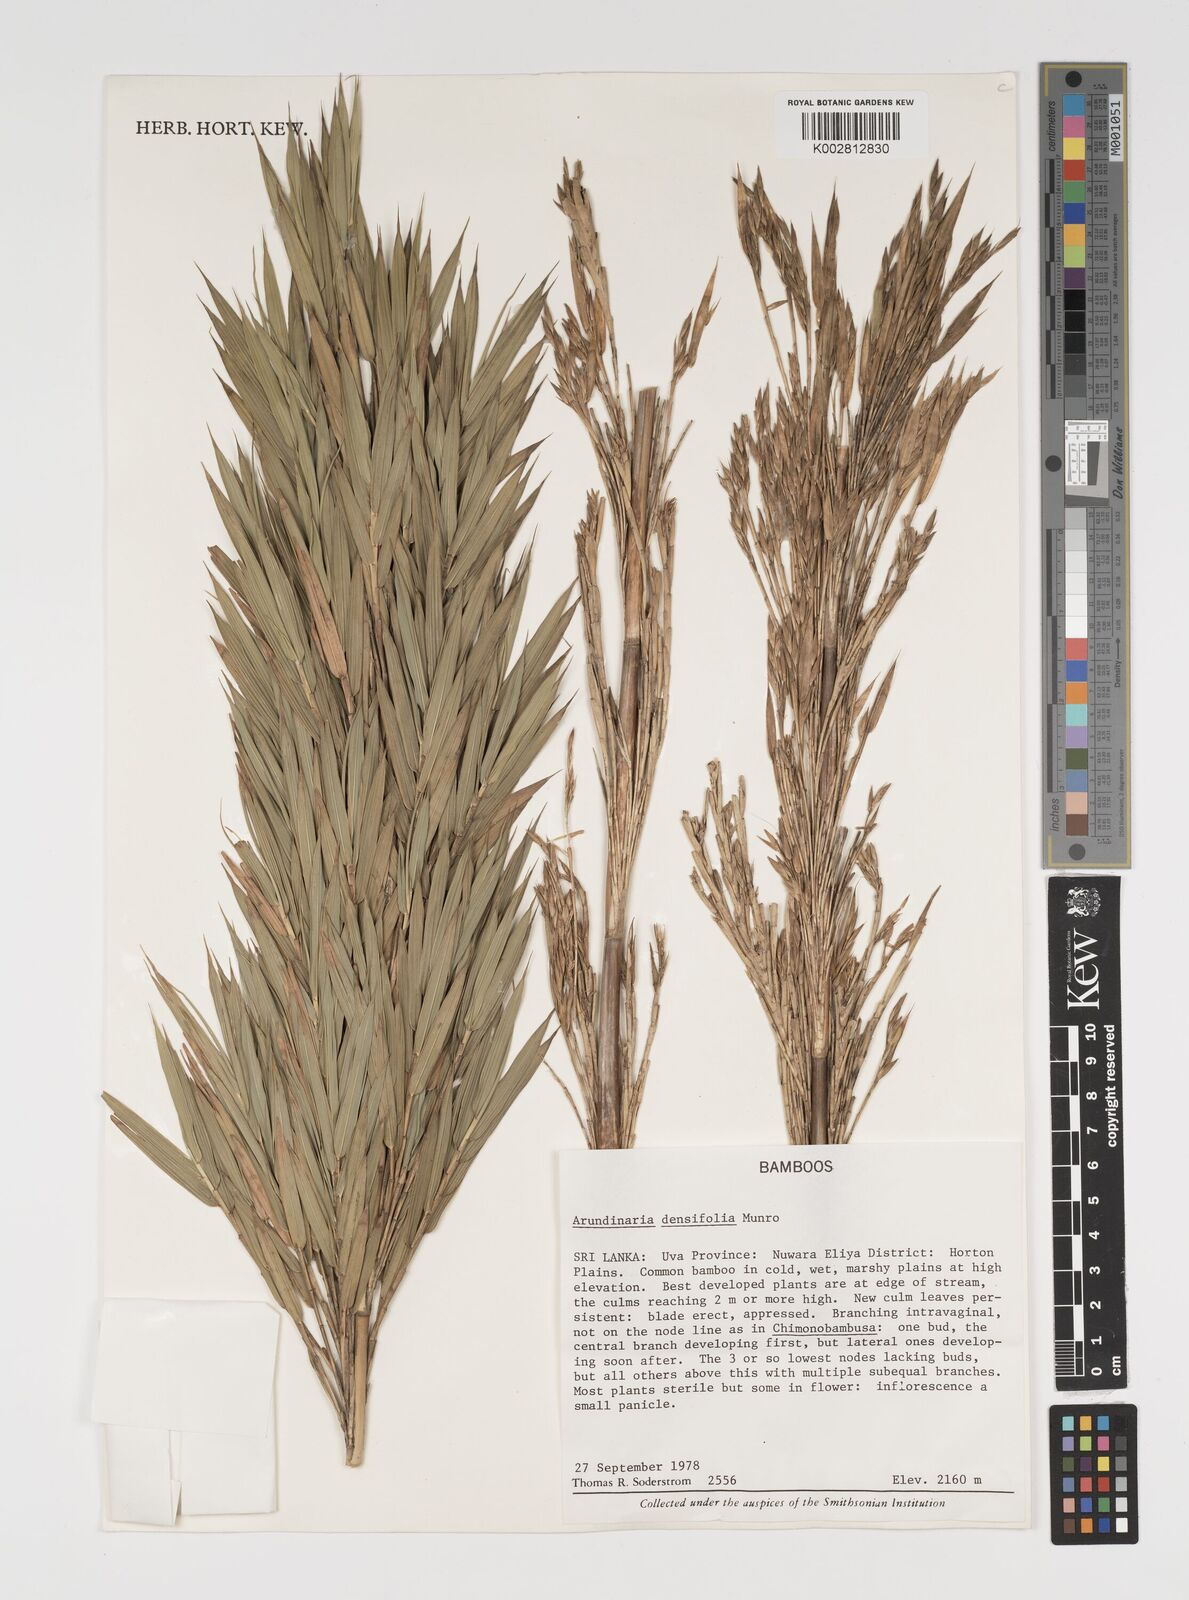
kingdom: Plantae
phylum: Tracheophyta
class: Liliopsida
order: Poales
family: Poaceae
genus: Brachystachyum
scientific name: Brachystachyum densiflorum
